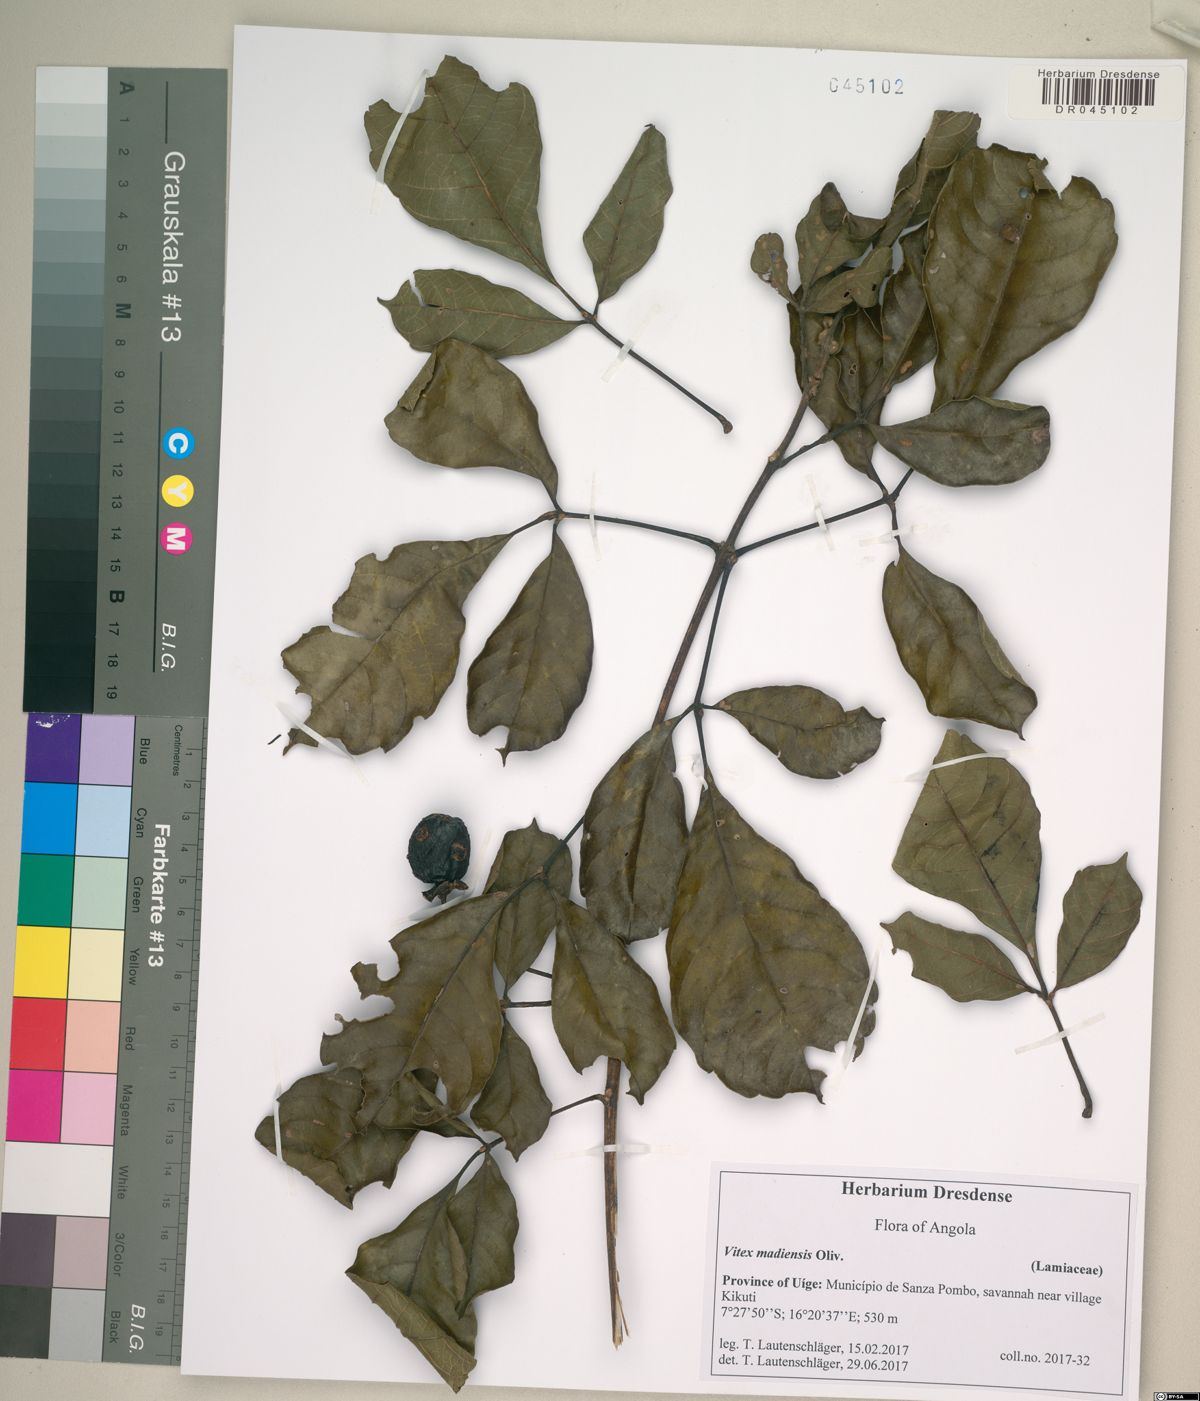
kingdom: Plantae
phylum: Tracheophyta
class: Magnoliopsida
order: Lamiales
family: Lamiaceae
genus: Vitex
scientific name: Vitex madiensis
